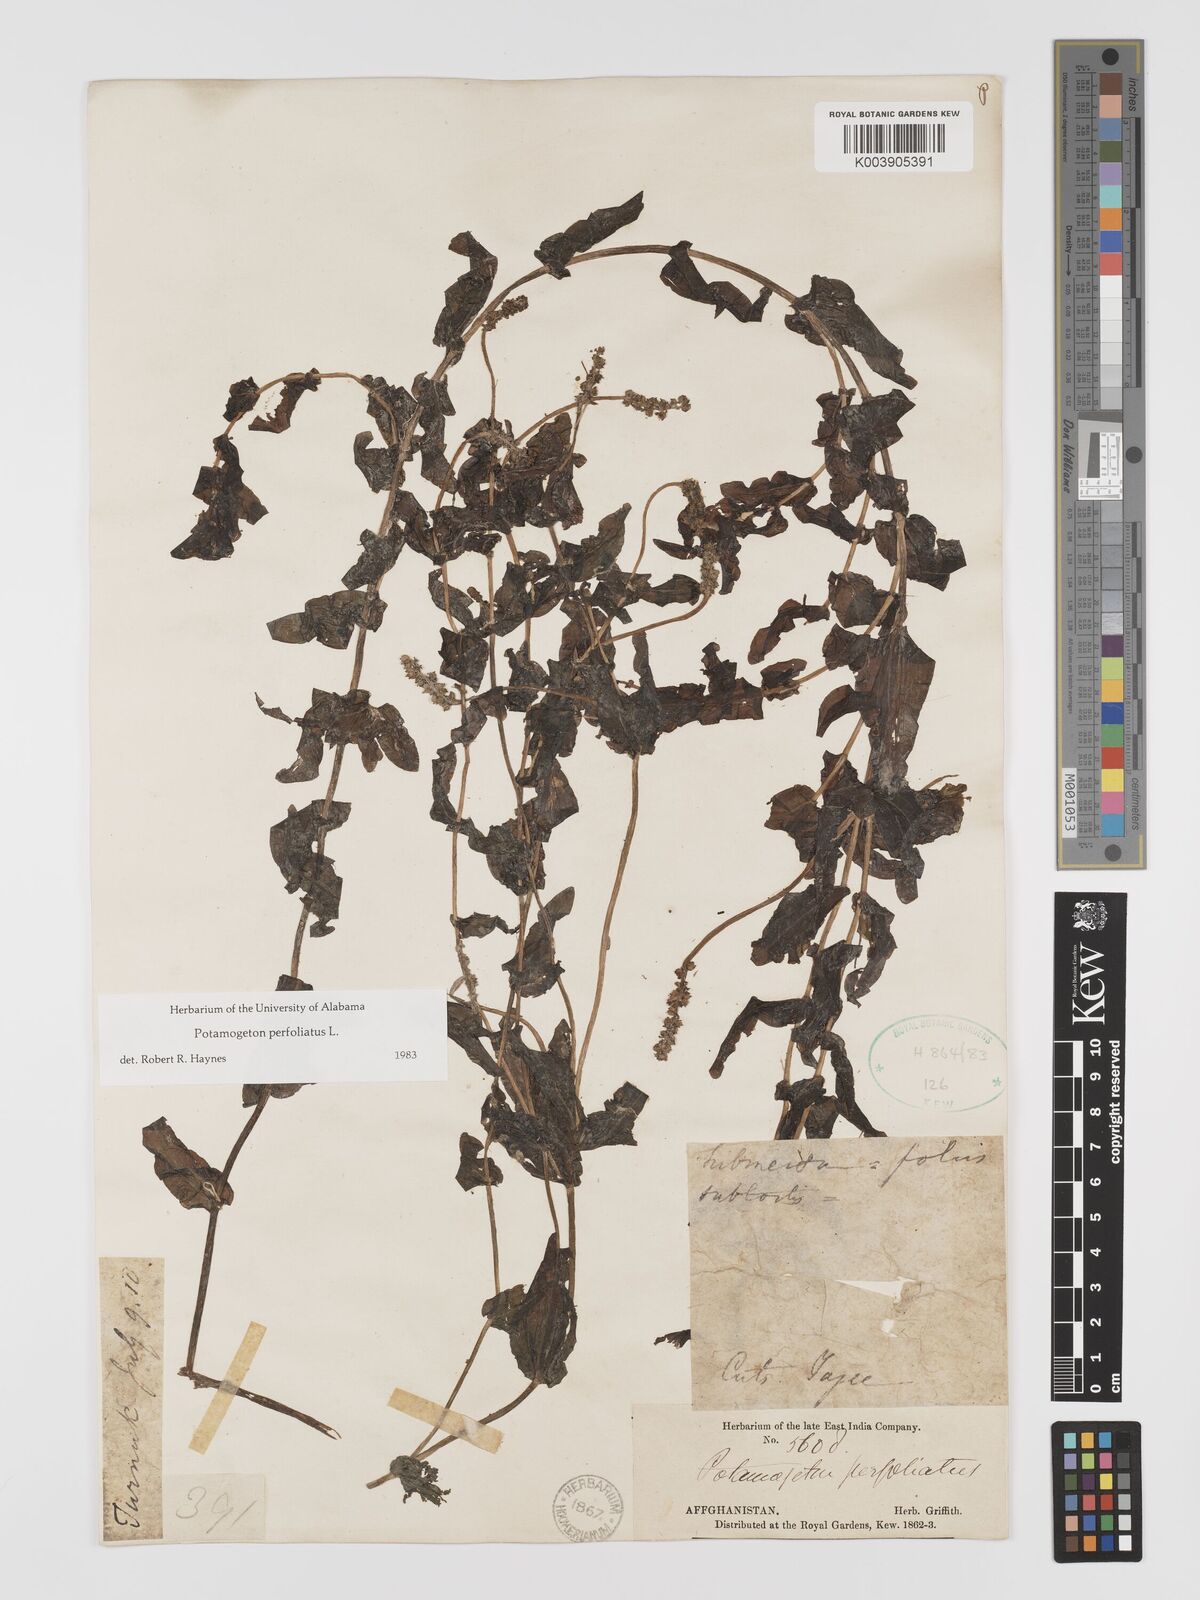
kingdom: Plantae
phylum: Tracheophyta
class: Liliopsida
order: Alismatales
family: Potamogetonaceae
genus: Potamogeton
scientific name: Potamogeton perfoliatus
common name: Perfoliate pondweed
